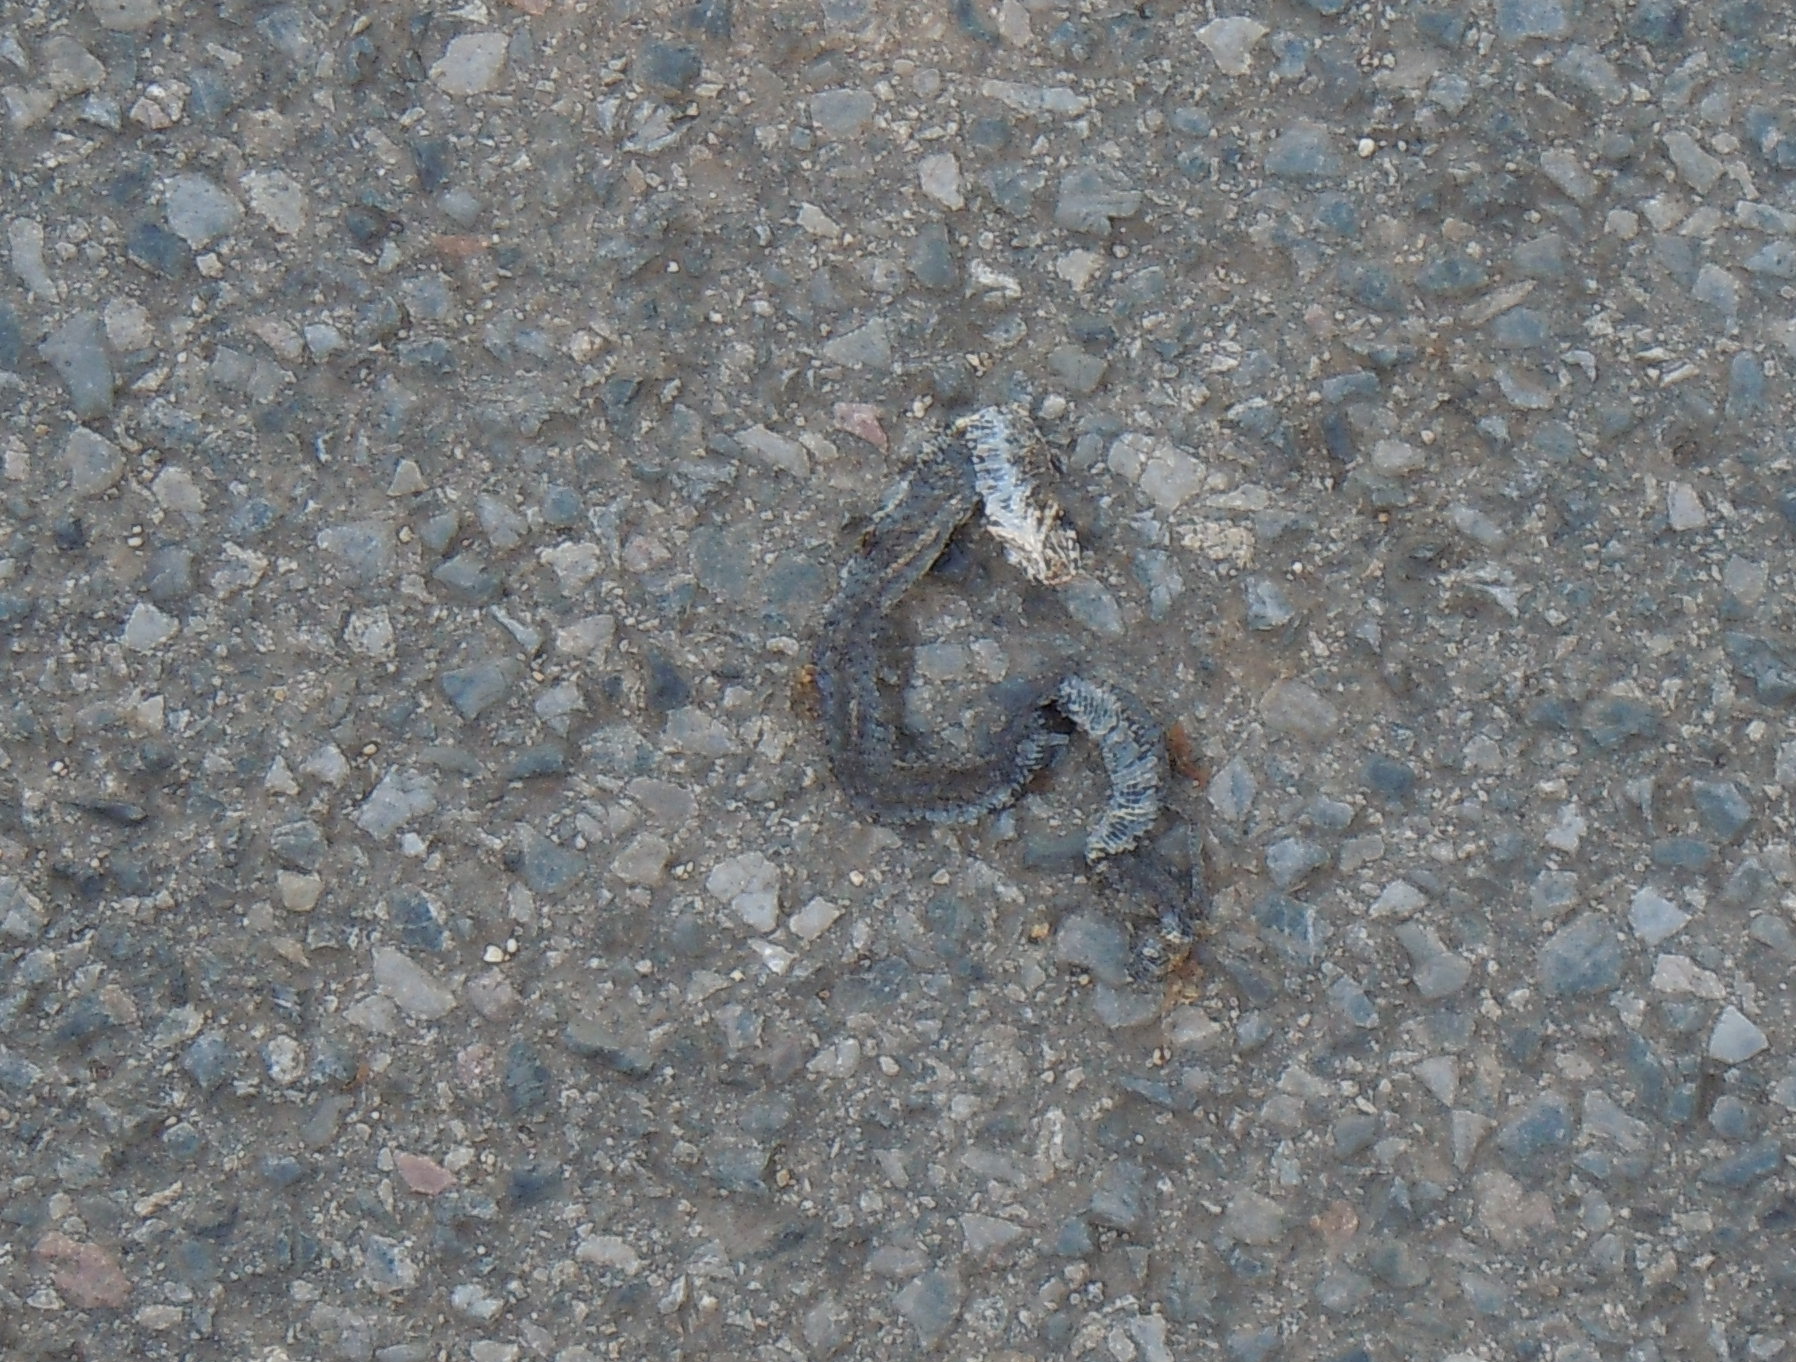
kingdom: Animalia
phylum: Chordata
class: Squamata
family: Colubridae
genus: Natrix
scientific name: Natrix natrix
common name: Grass snake
